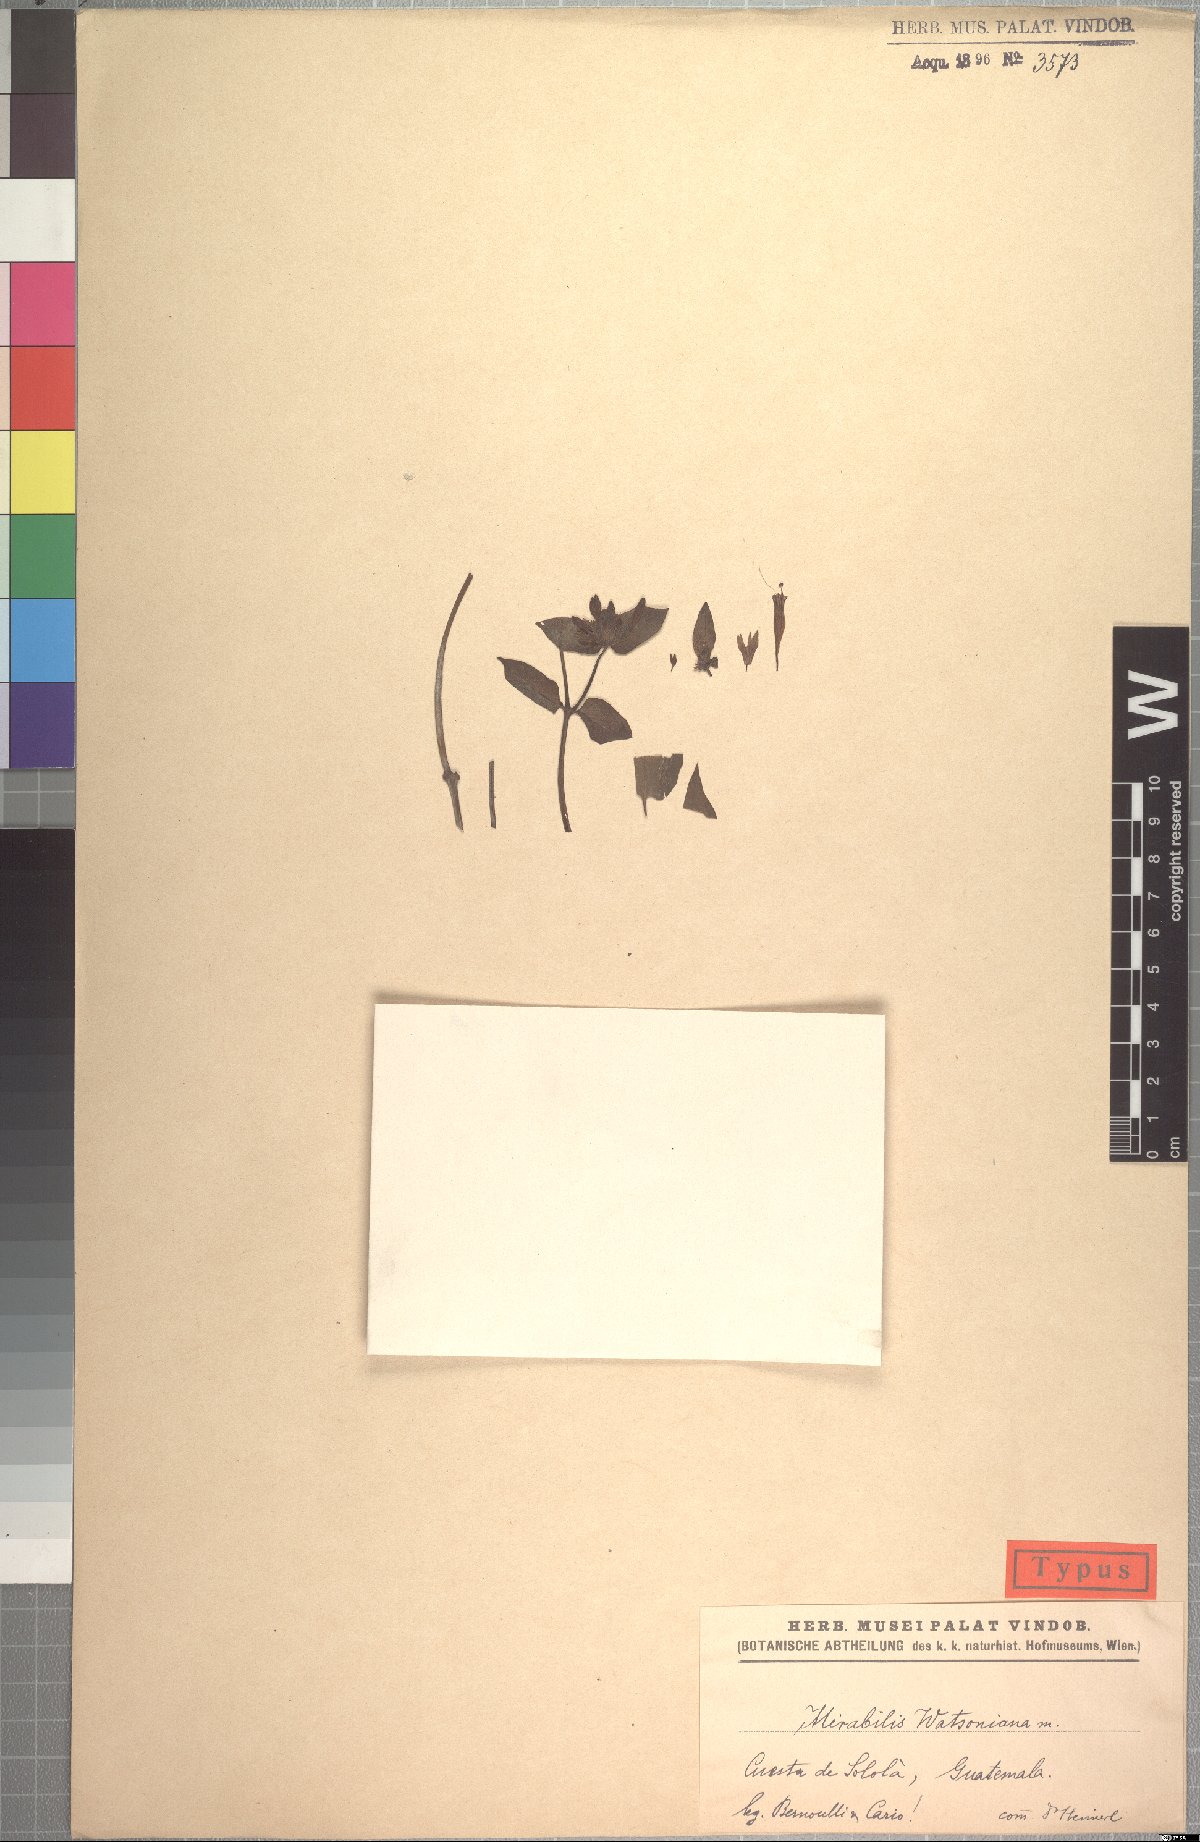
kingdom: Plantae
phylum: Tracheophyta
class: Magnoliopsida
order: Caryophyllales
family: Nyctaginaceae
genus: Mirabilis
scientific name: Mirabilis watsoniana
